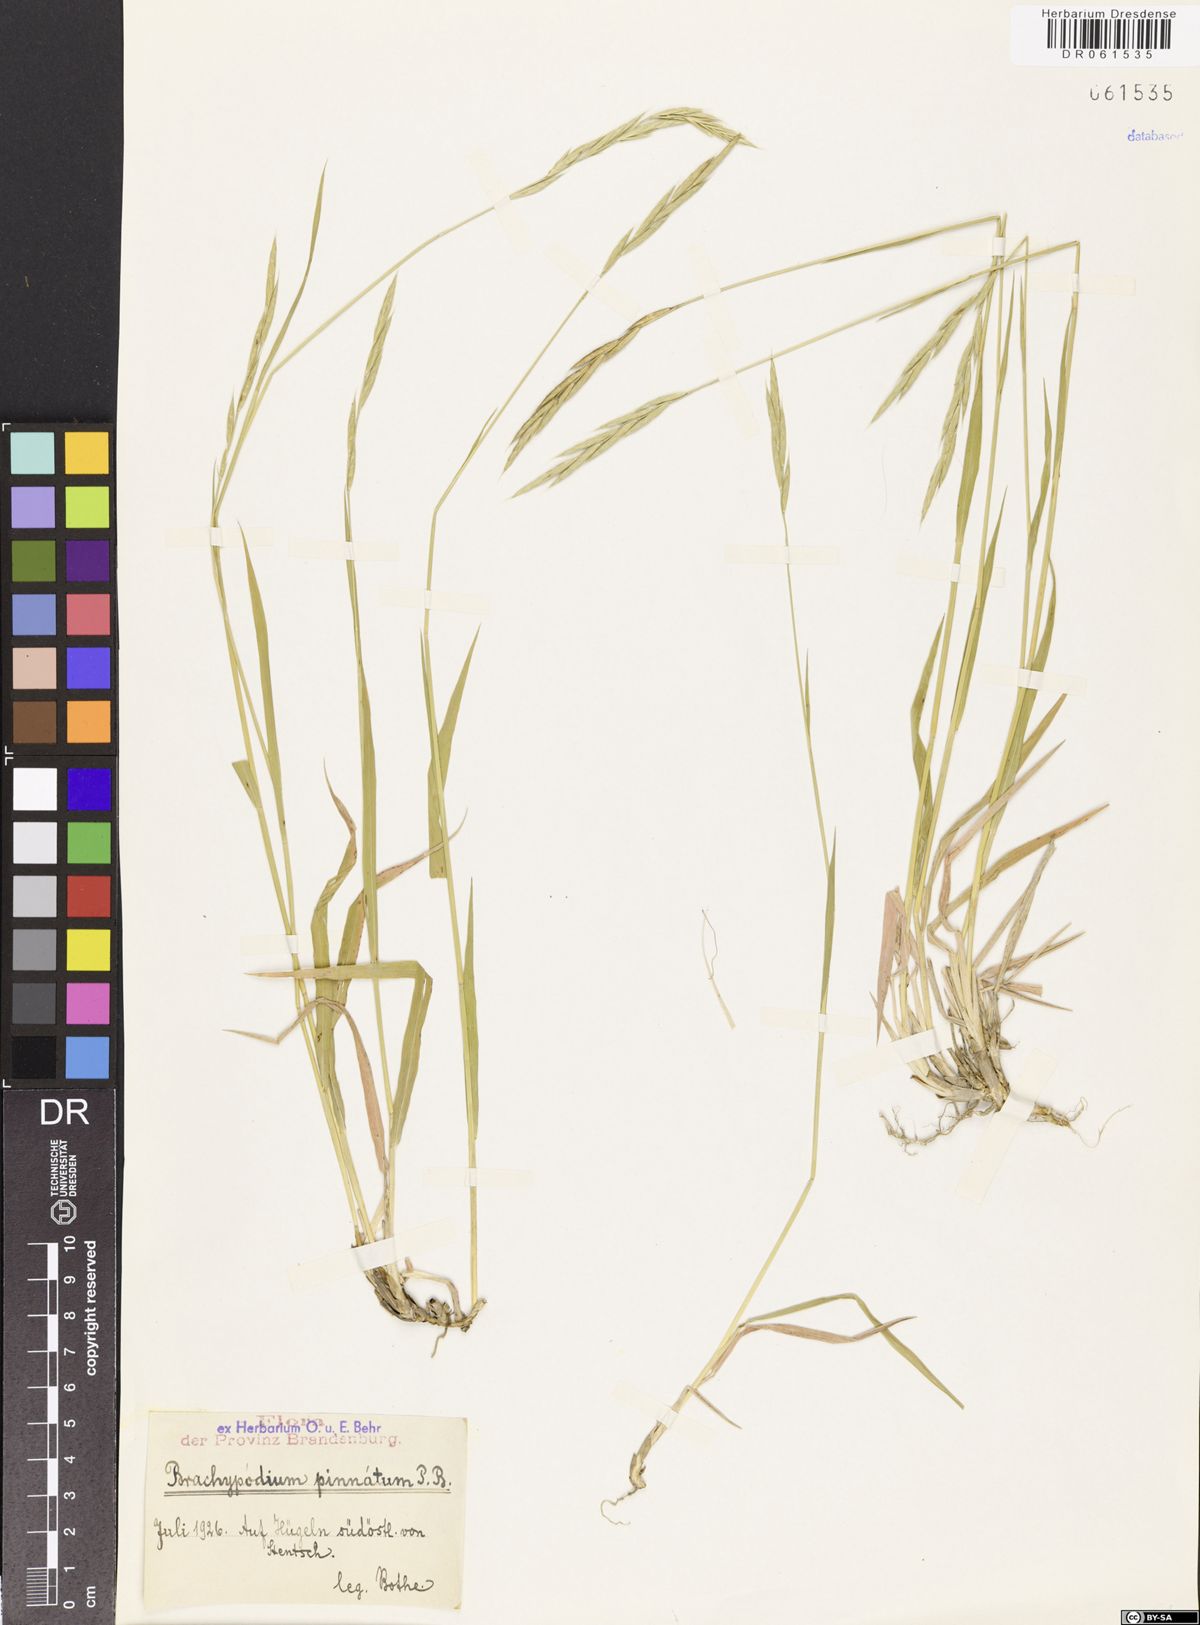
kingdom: Plantae
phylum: Tracheophyta
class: Liliopsida
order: Poales
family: Poaceae
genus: Brachypodium
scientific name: Brachypodium pinnatum
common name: Tor grass
